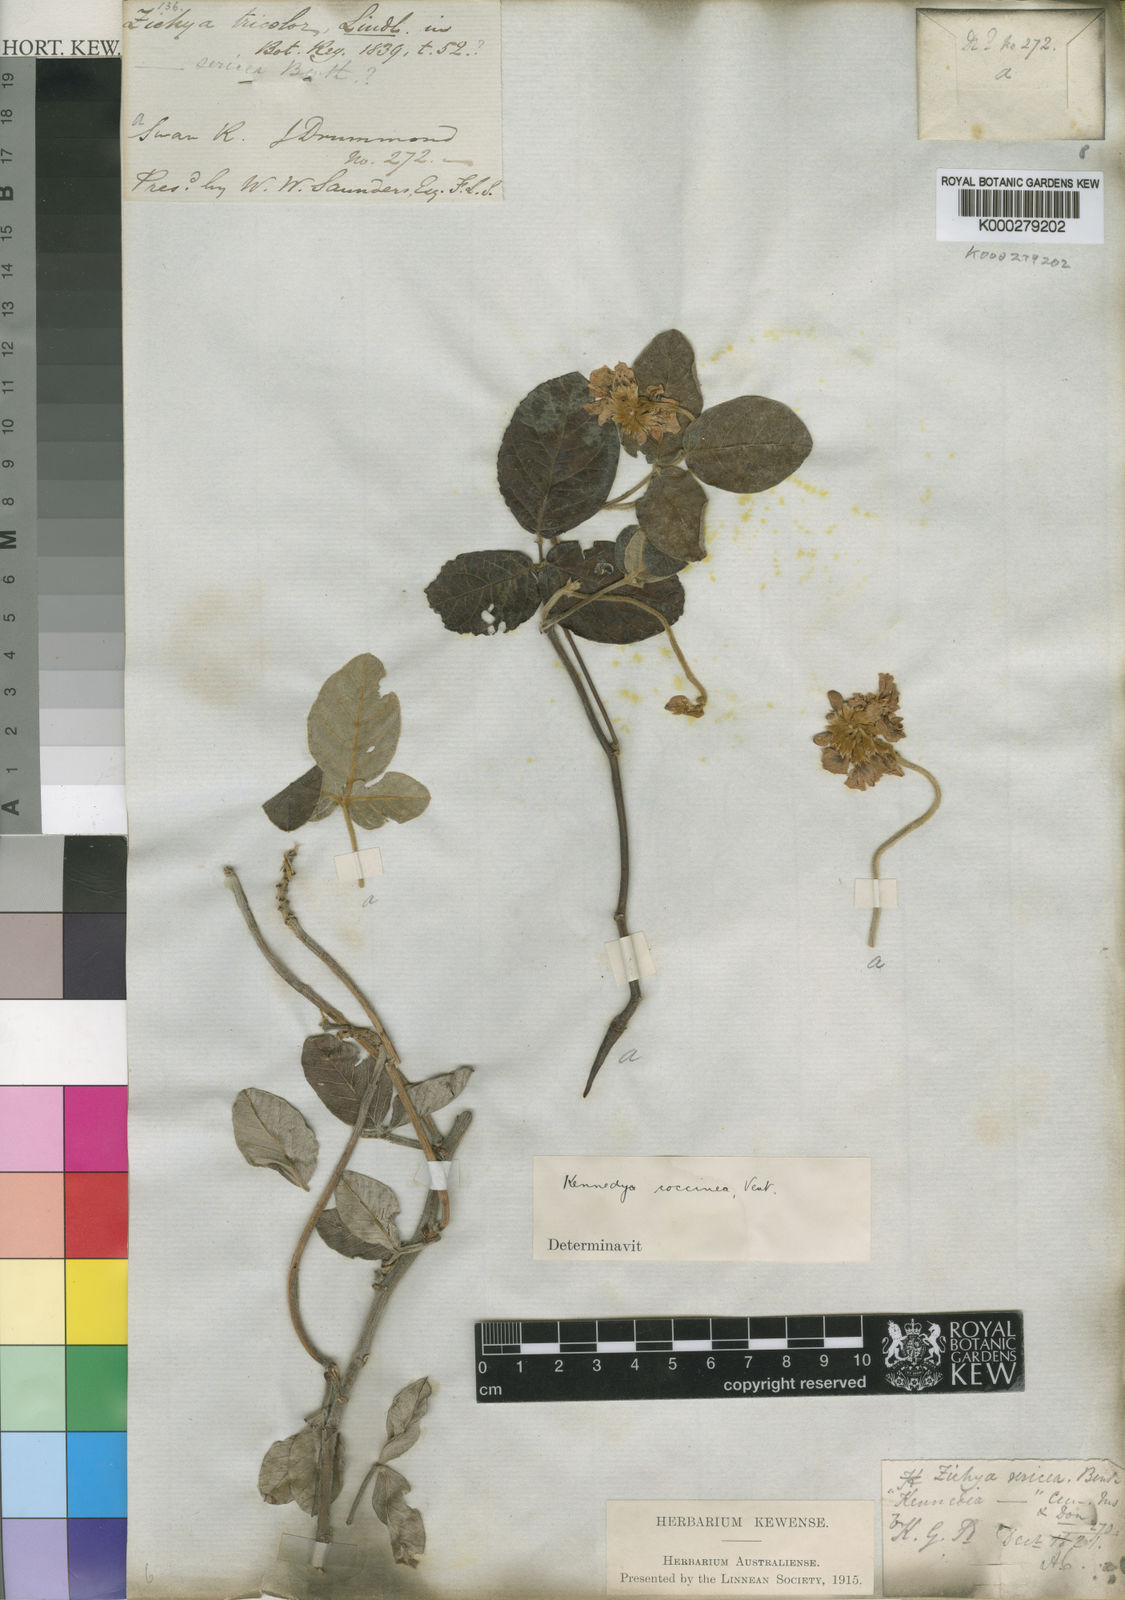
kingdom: Plantae
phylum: Tracheophyta
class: Magnoliopsida
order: Fabales
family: Fabaceae
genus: Kennedia
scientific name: Kennedia coccinea
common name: Coralvine
